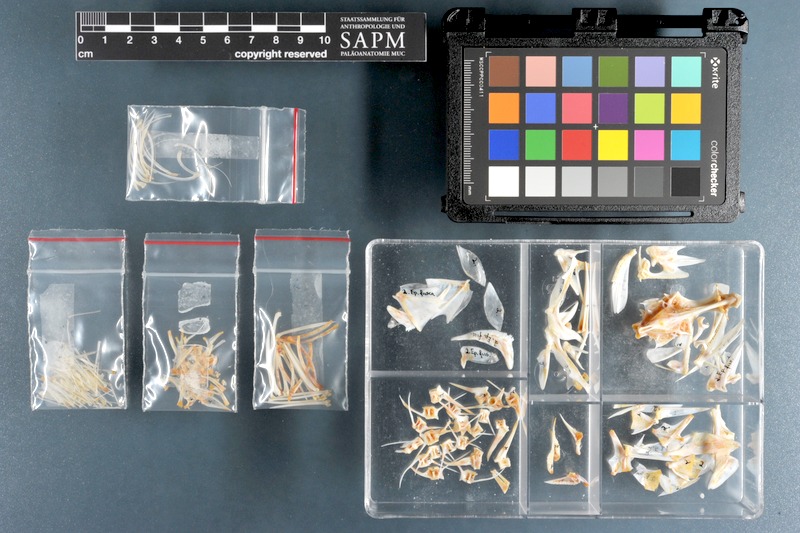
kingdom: Animalia
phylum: Chordata
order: Perciformes
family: Serranidae
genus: Epinephelus
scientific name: Epinephelus fuscoguttatus
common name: Brown-marbled grouper
